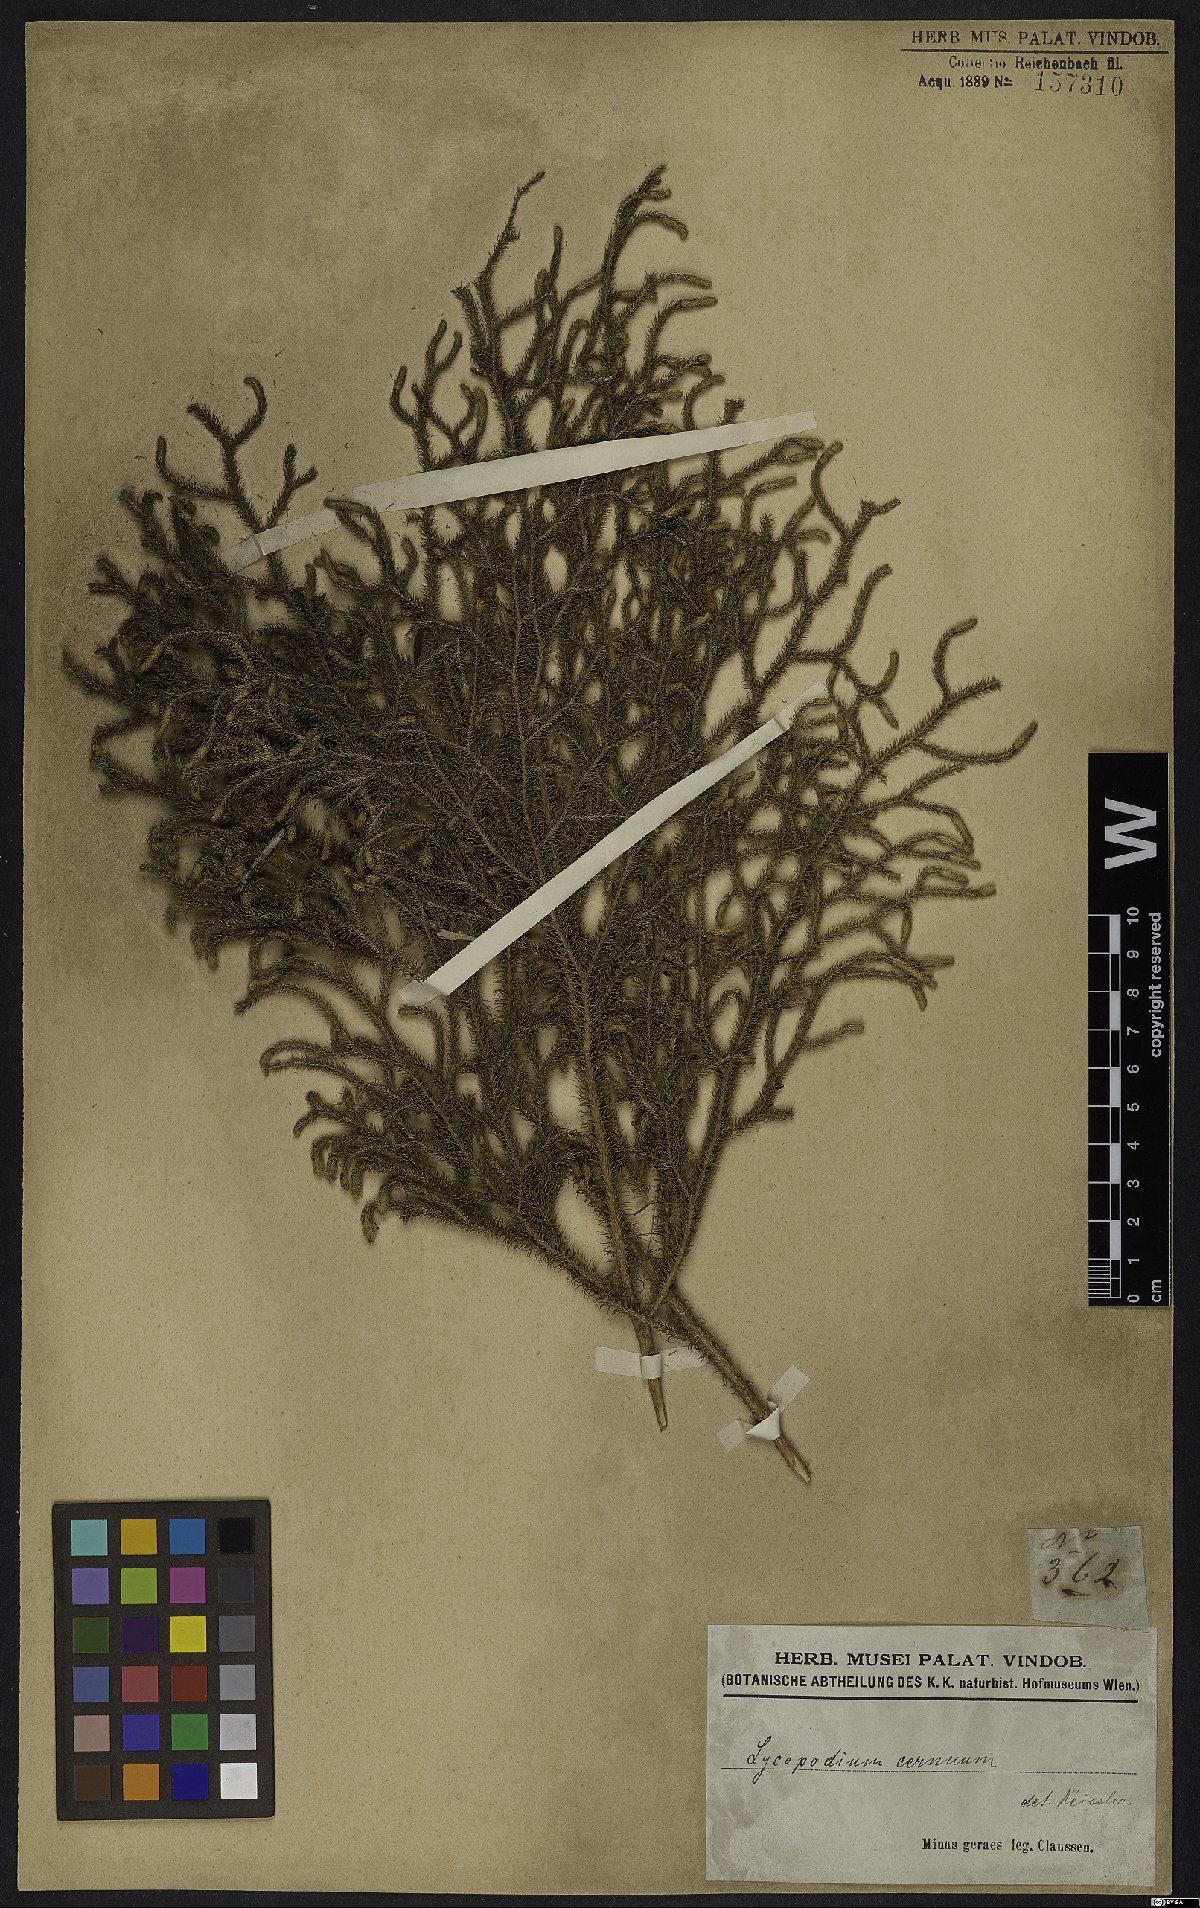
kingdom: Plantae
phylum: Tracheophyta
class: Lycopodiopsida
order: Lycopodiales
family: Lycopodiaceae
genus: Palhinhaea
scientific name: Palhinhaea cernua
